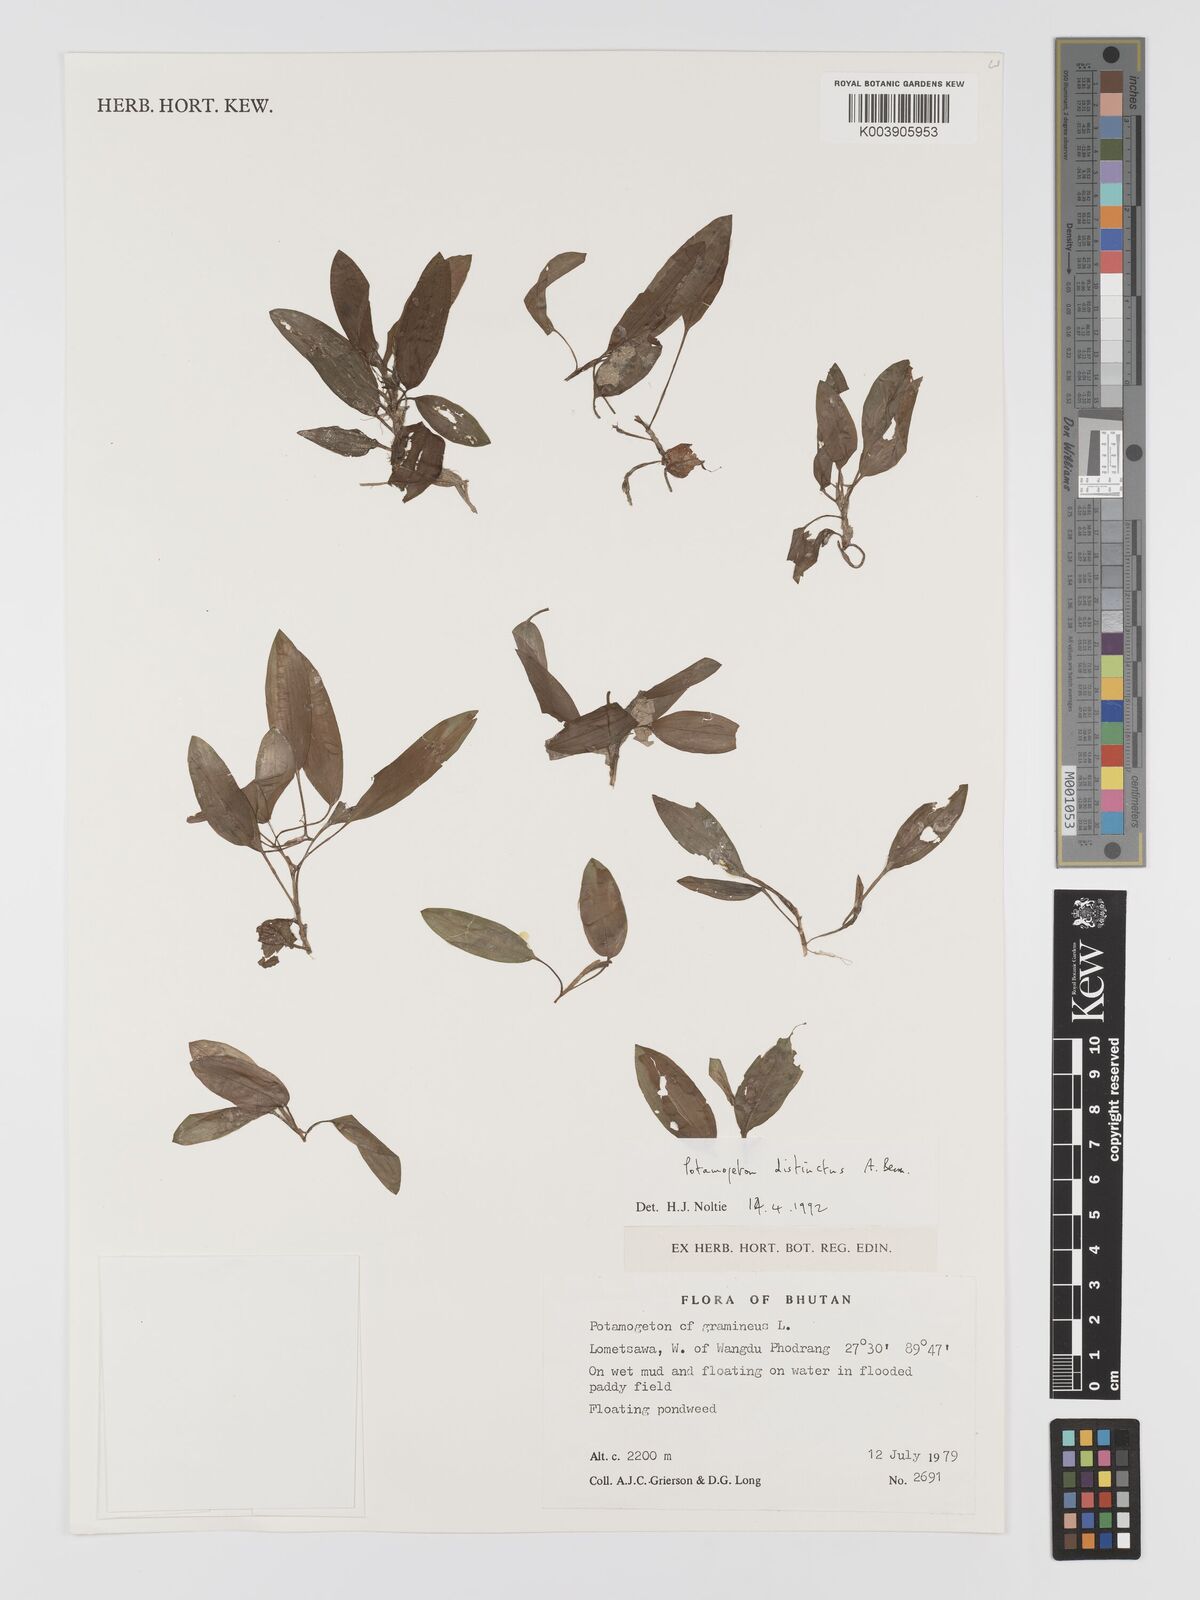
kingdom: Plantae
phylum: Tracheophyta
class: Liliopsida
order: Alismatales
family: Potamogetonaceae
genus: Potamogeton
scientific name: Potamogeton distinctus
